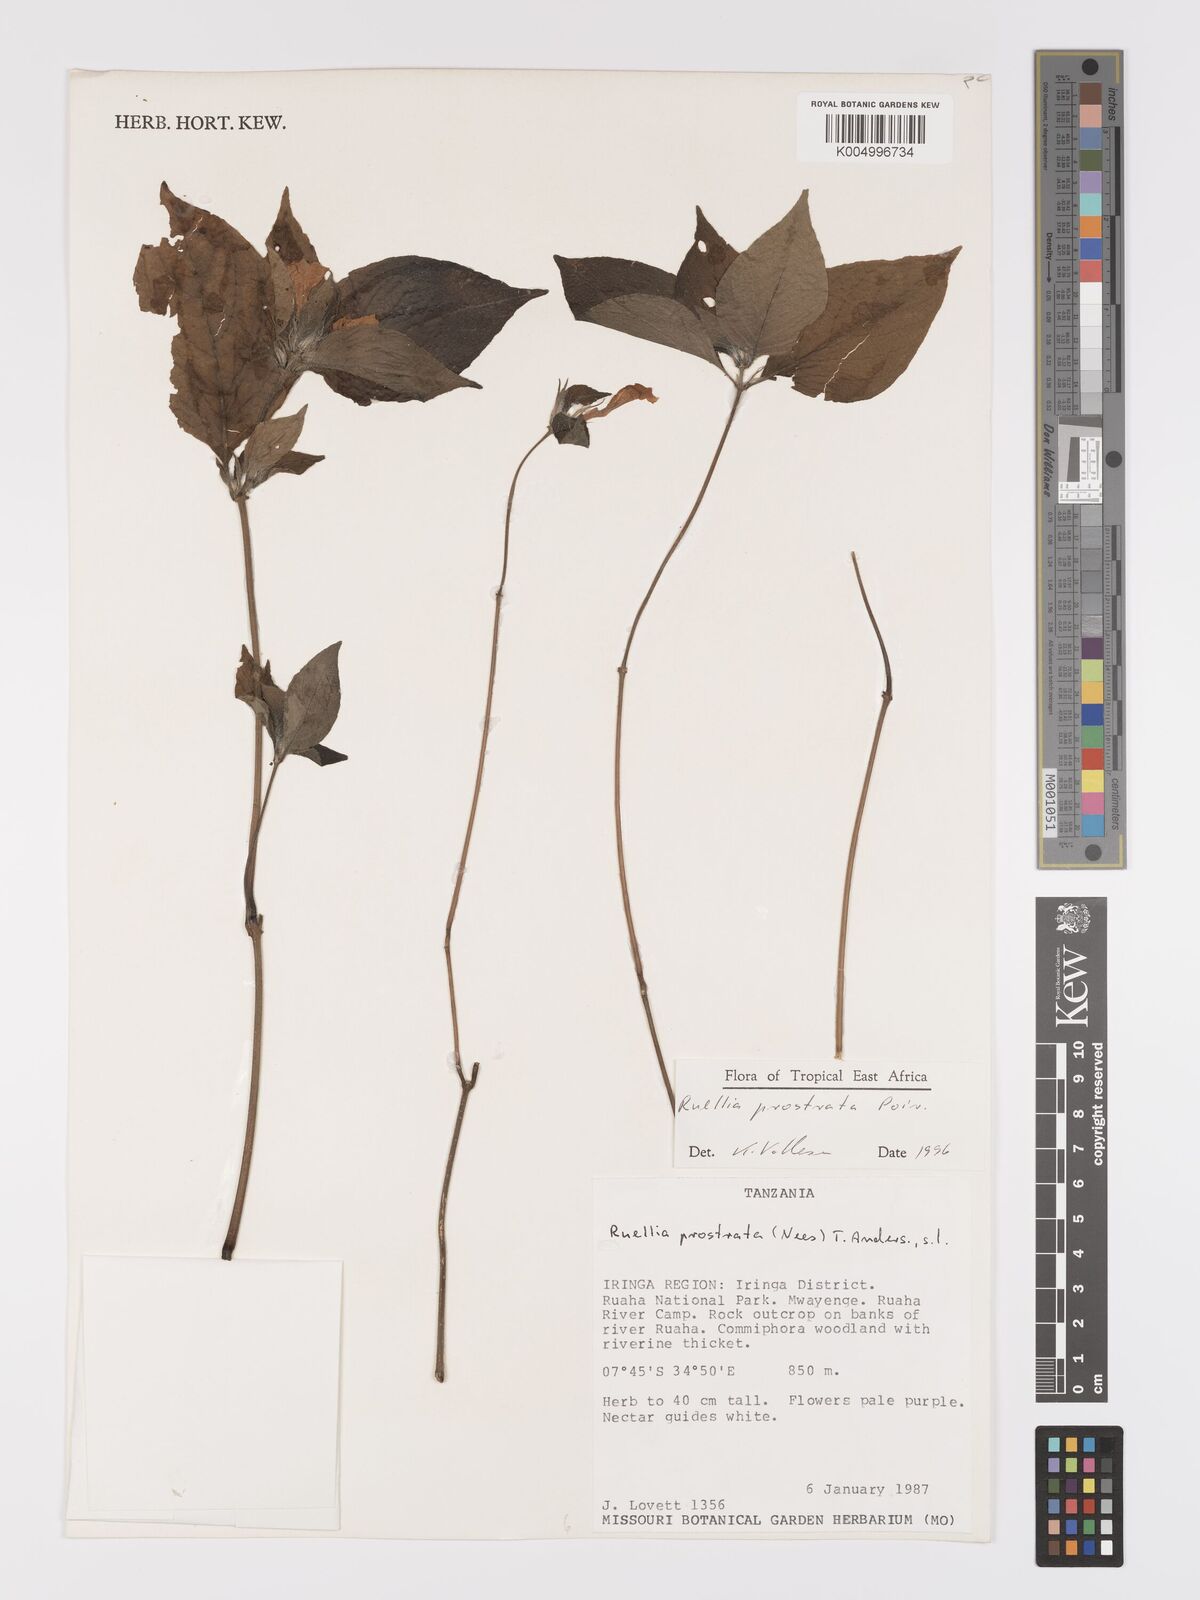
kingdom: Plantae
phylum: Tracheophyta
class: Magnoliopsida
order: Lamiales
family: Acanthaceae
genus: Ruellia
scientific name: Ruellia
